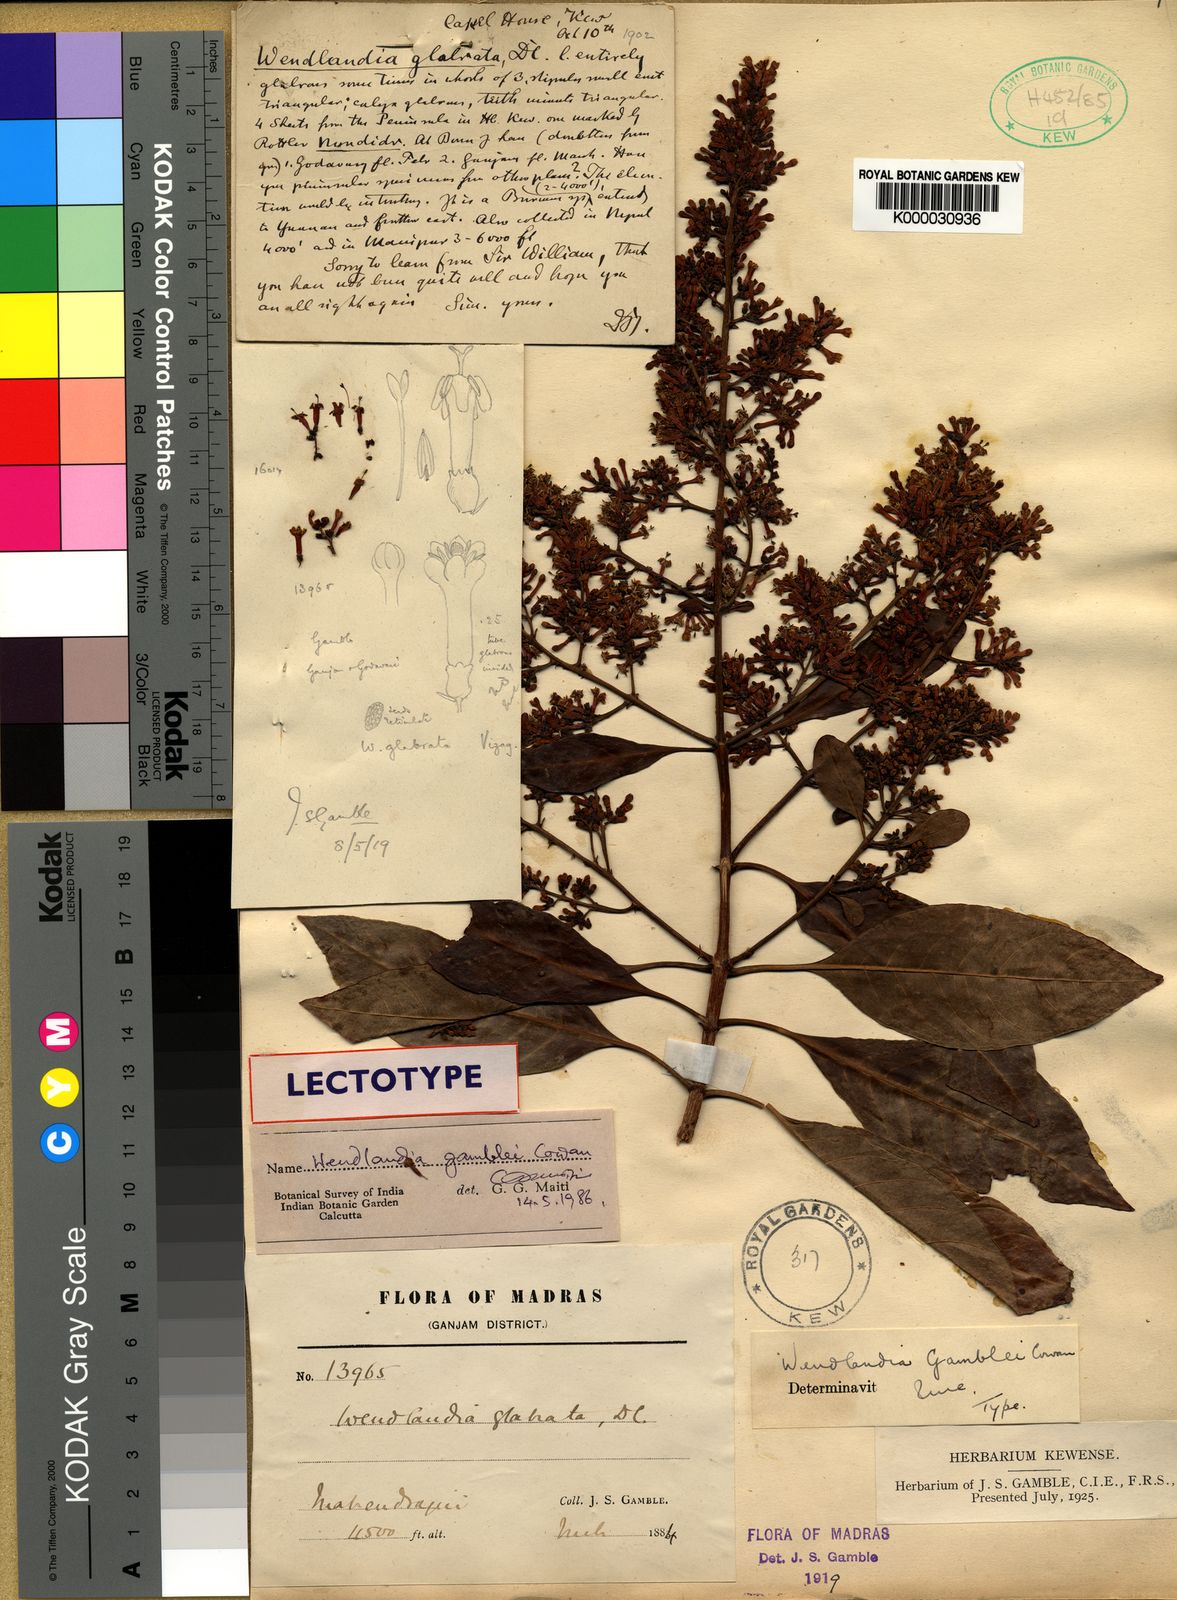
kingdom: Plantae
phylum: Tracheophyta
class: Magnoliopsida
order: Gentianales
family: Rubiaceae
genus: Wendlandia
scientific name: Wendlandia gamblei
